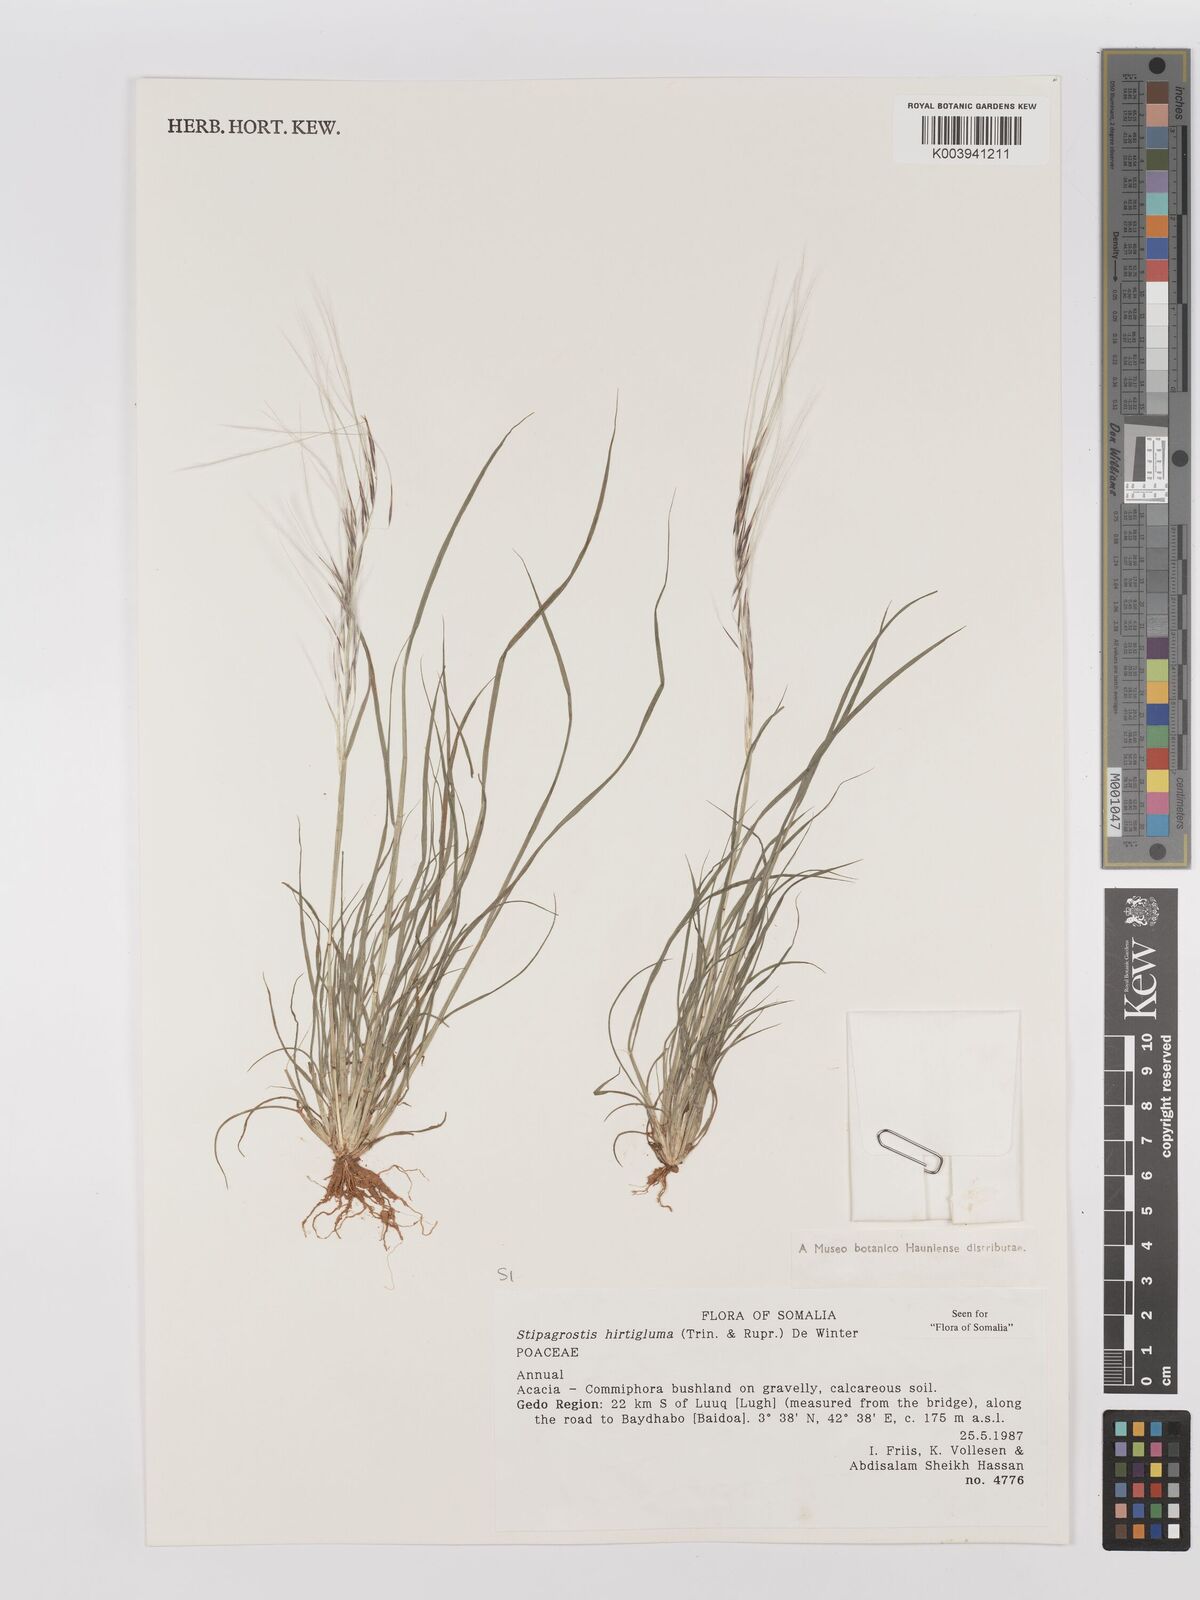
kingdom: Plantae
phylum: Tracheophyta
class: Liliopsida
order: Poales
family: Poaceae
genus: Stipagrostis
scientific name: Stipagrostis hirtigluma
